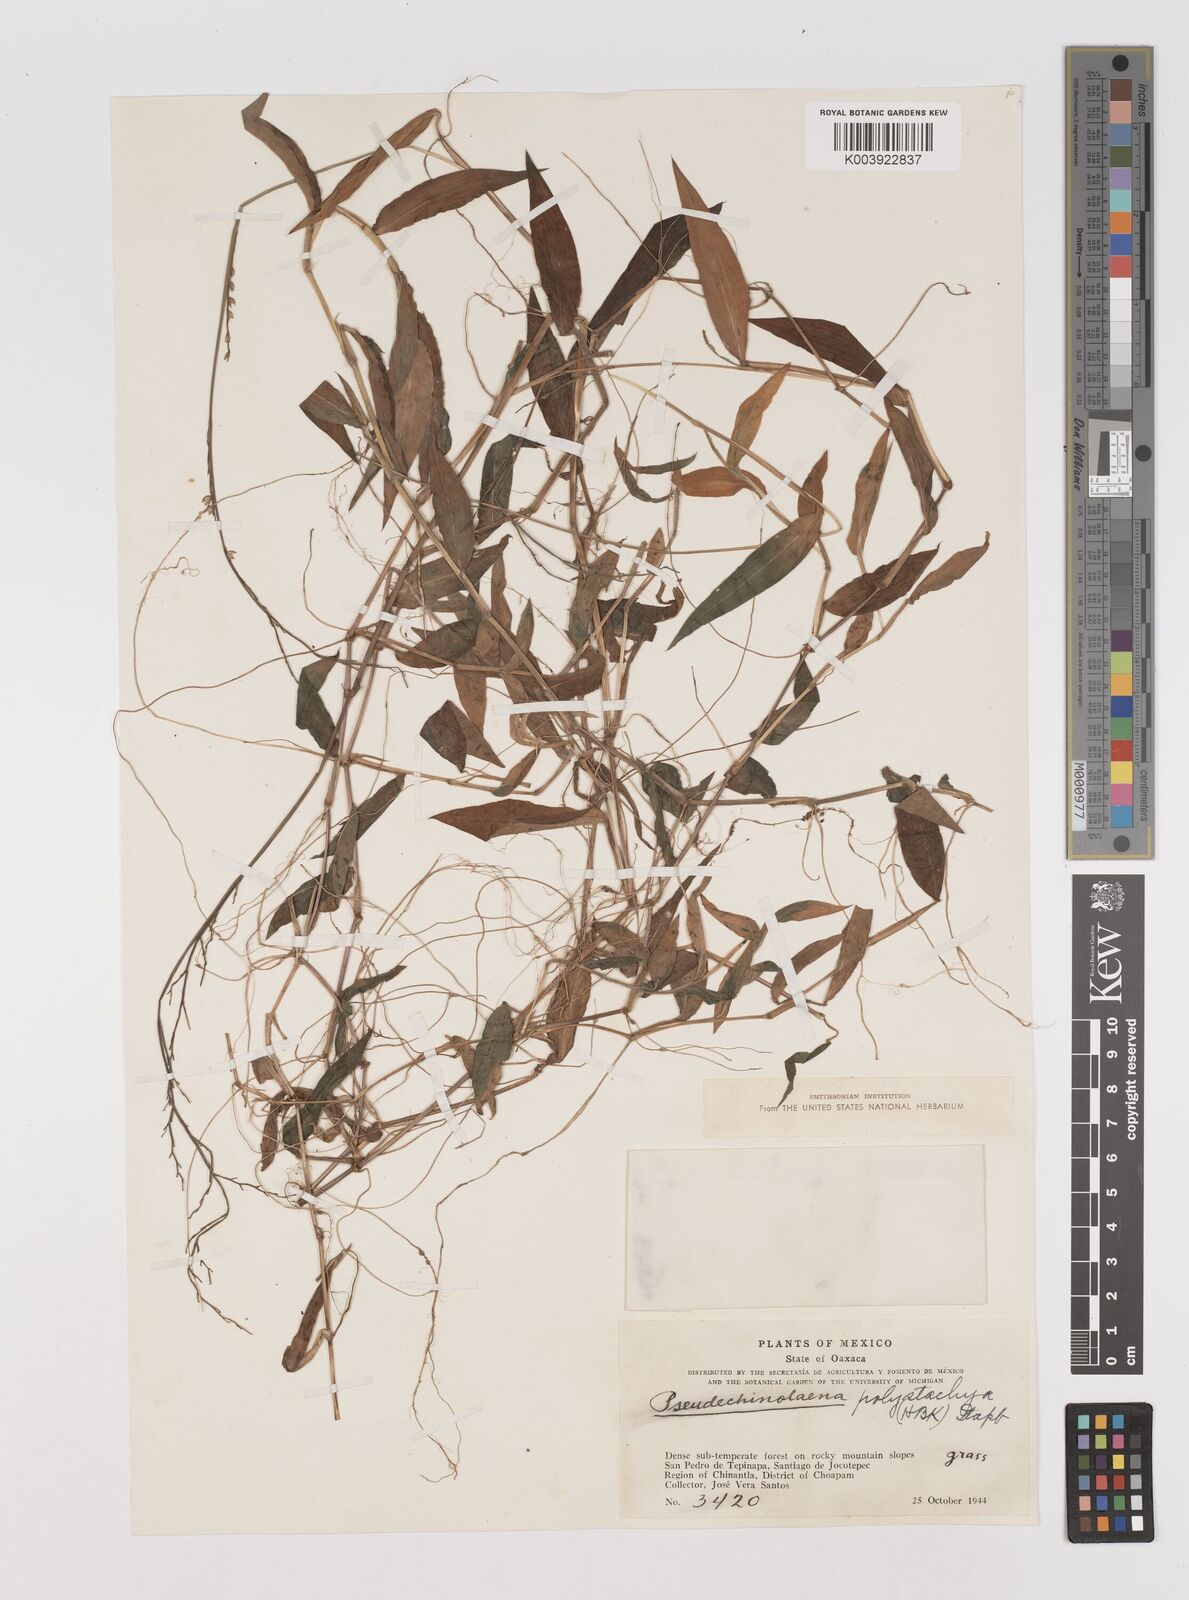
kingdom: Plantae
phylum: Tracheophyta
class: Liliopsida
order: Poales
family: Poaceae
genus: Pseudechinolaena
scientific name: Pseudechinolaena polystachya
